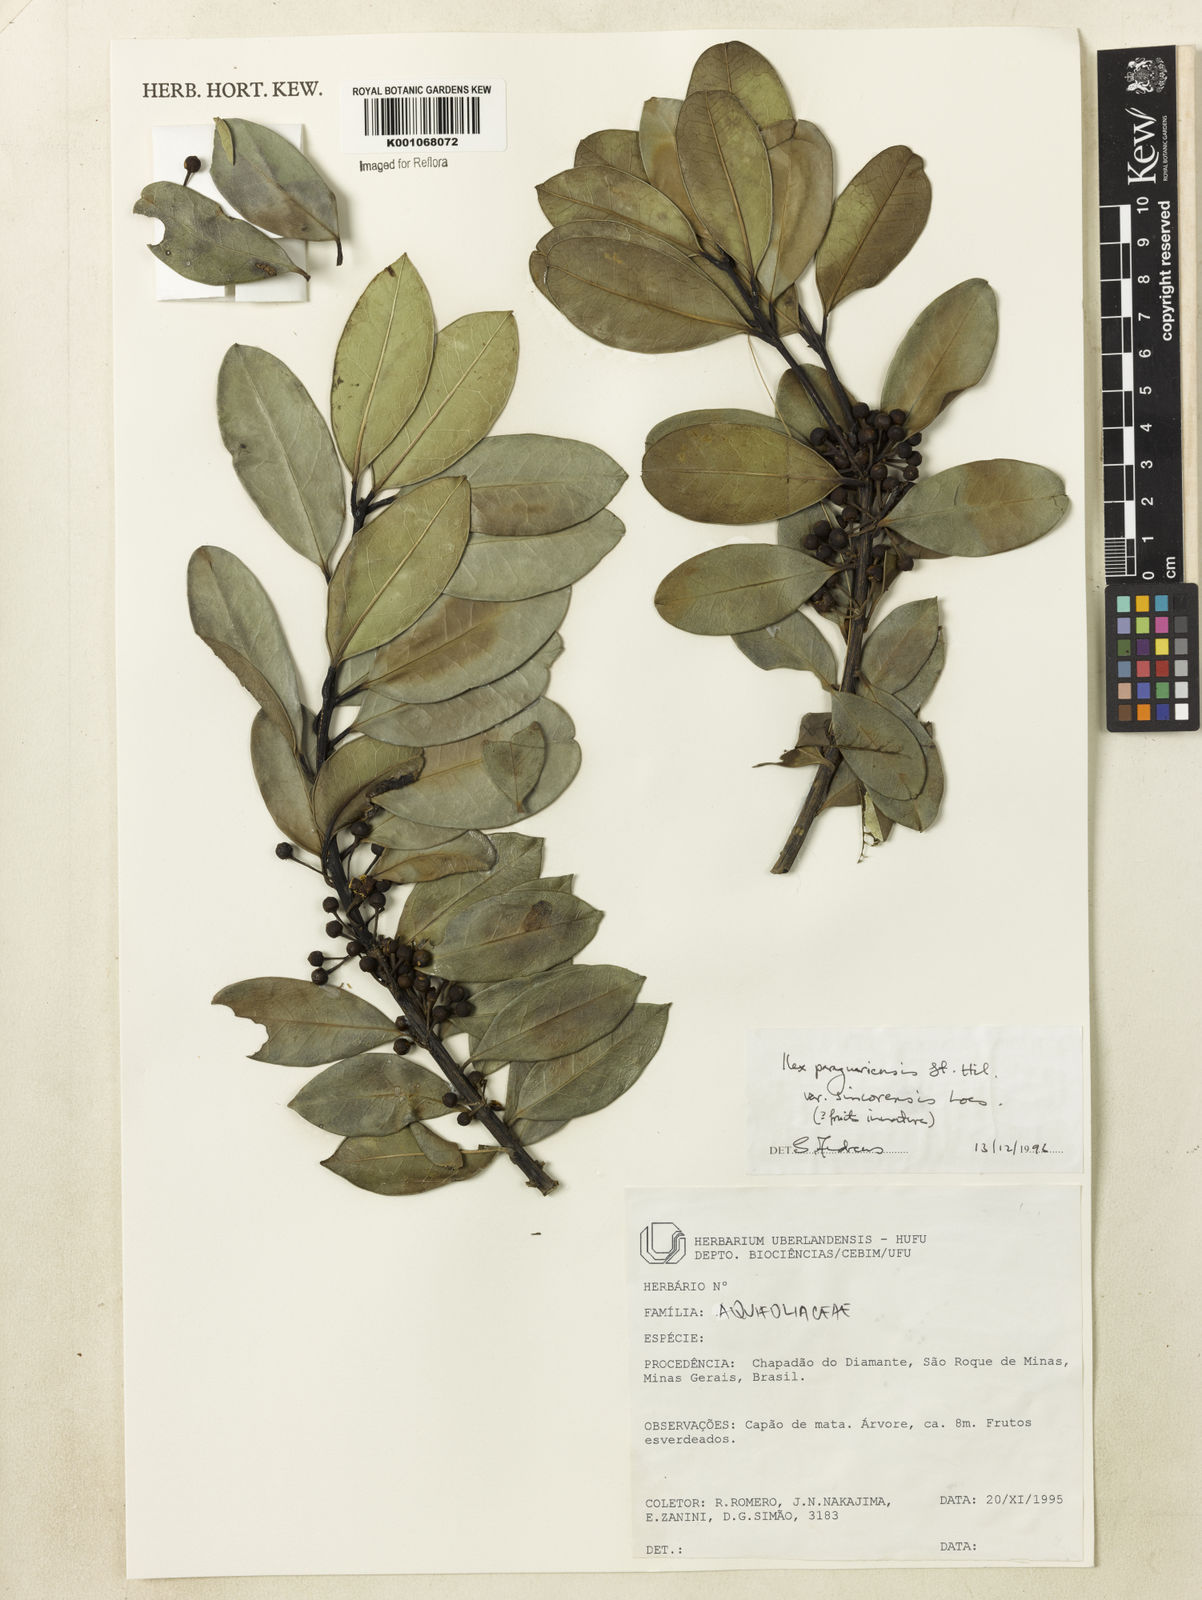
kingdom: Plantae
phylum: Tracheophyta
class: Magnoliopsida
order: Aquifoliales
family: Aquifoliaceae
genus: Ilex
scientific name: Ilex paraguariensis
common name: Paraguay tea
